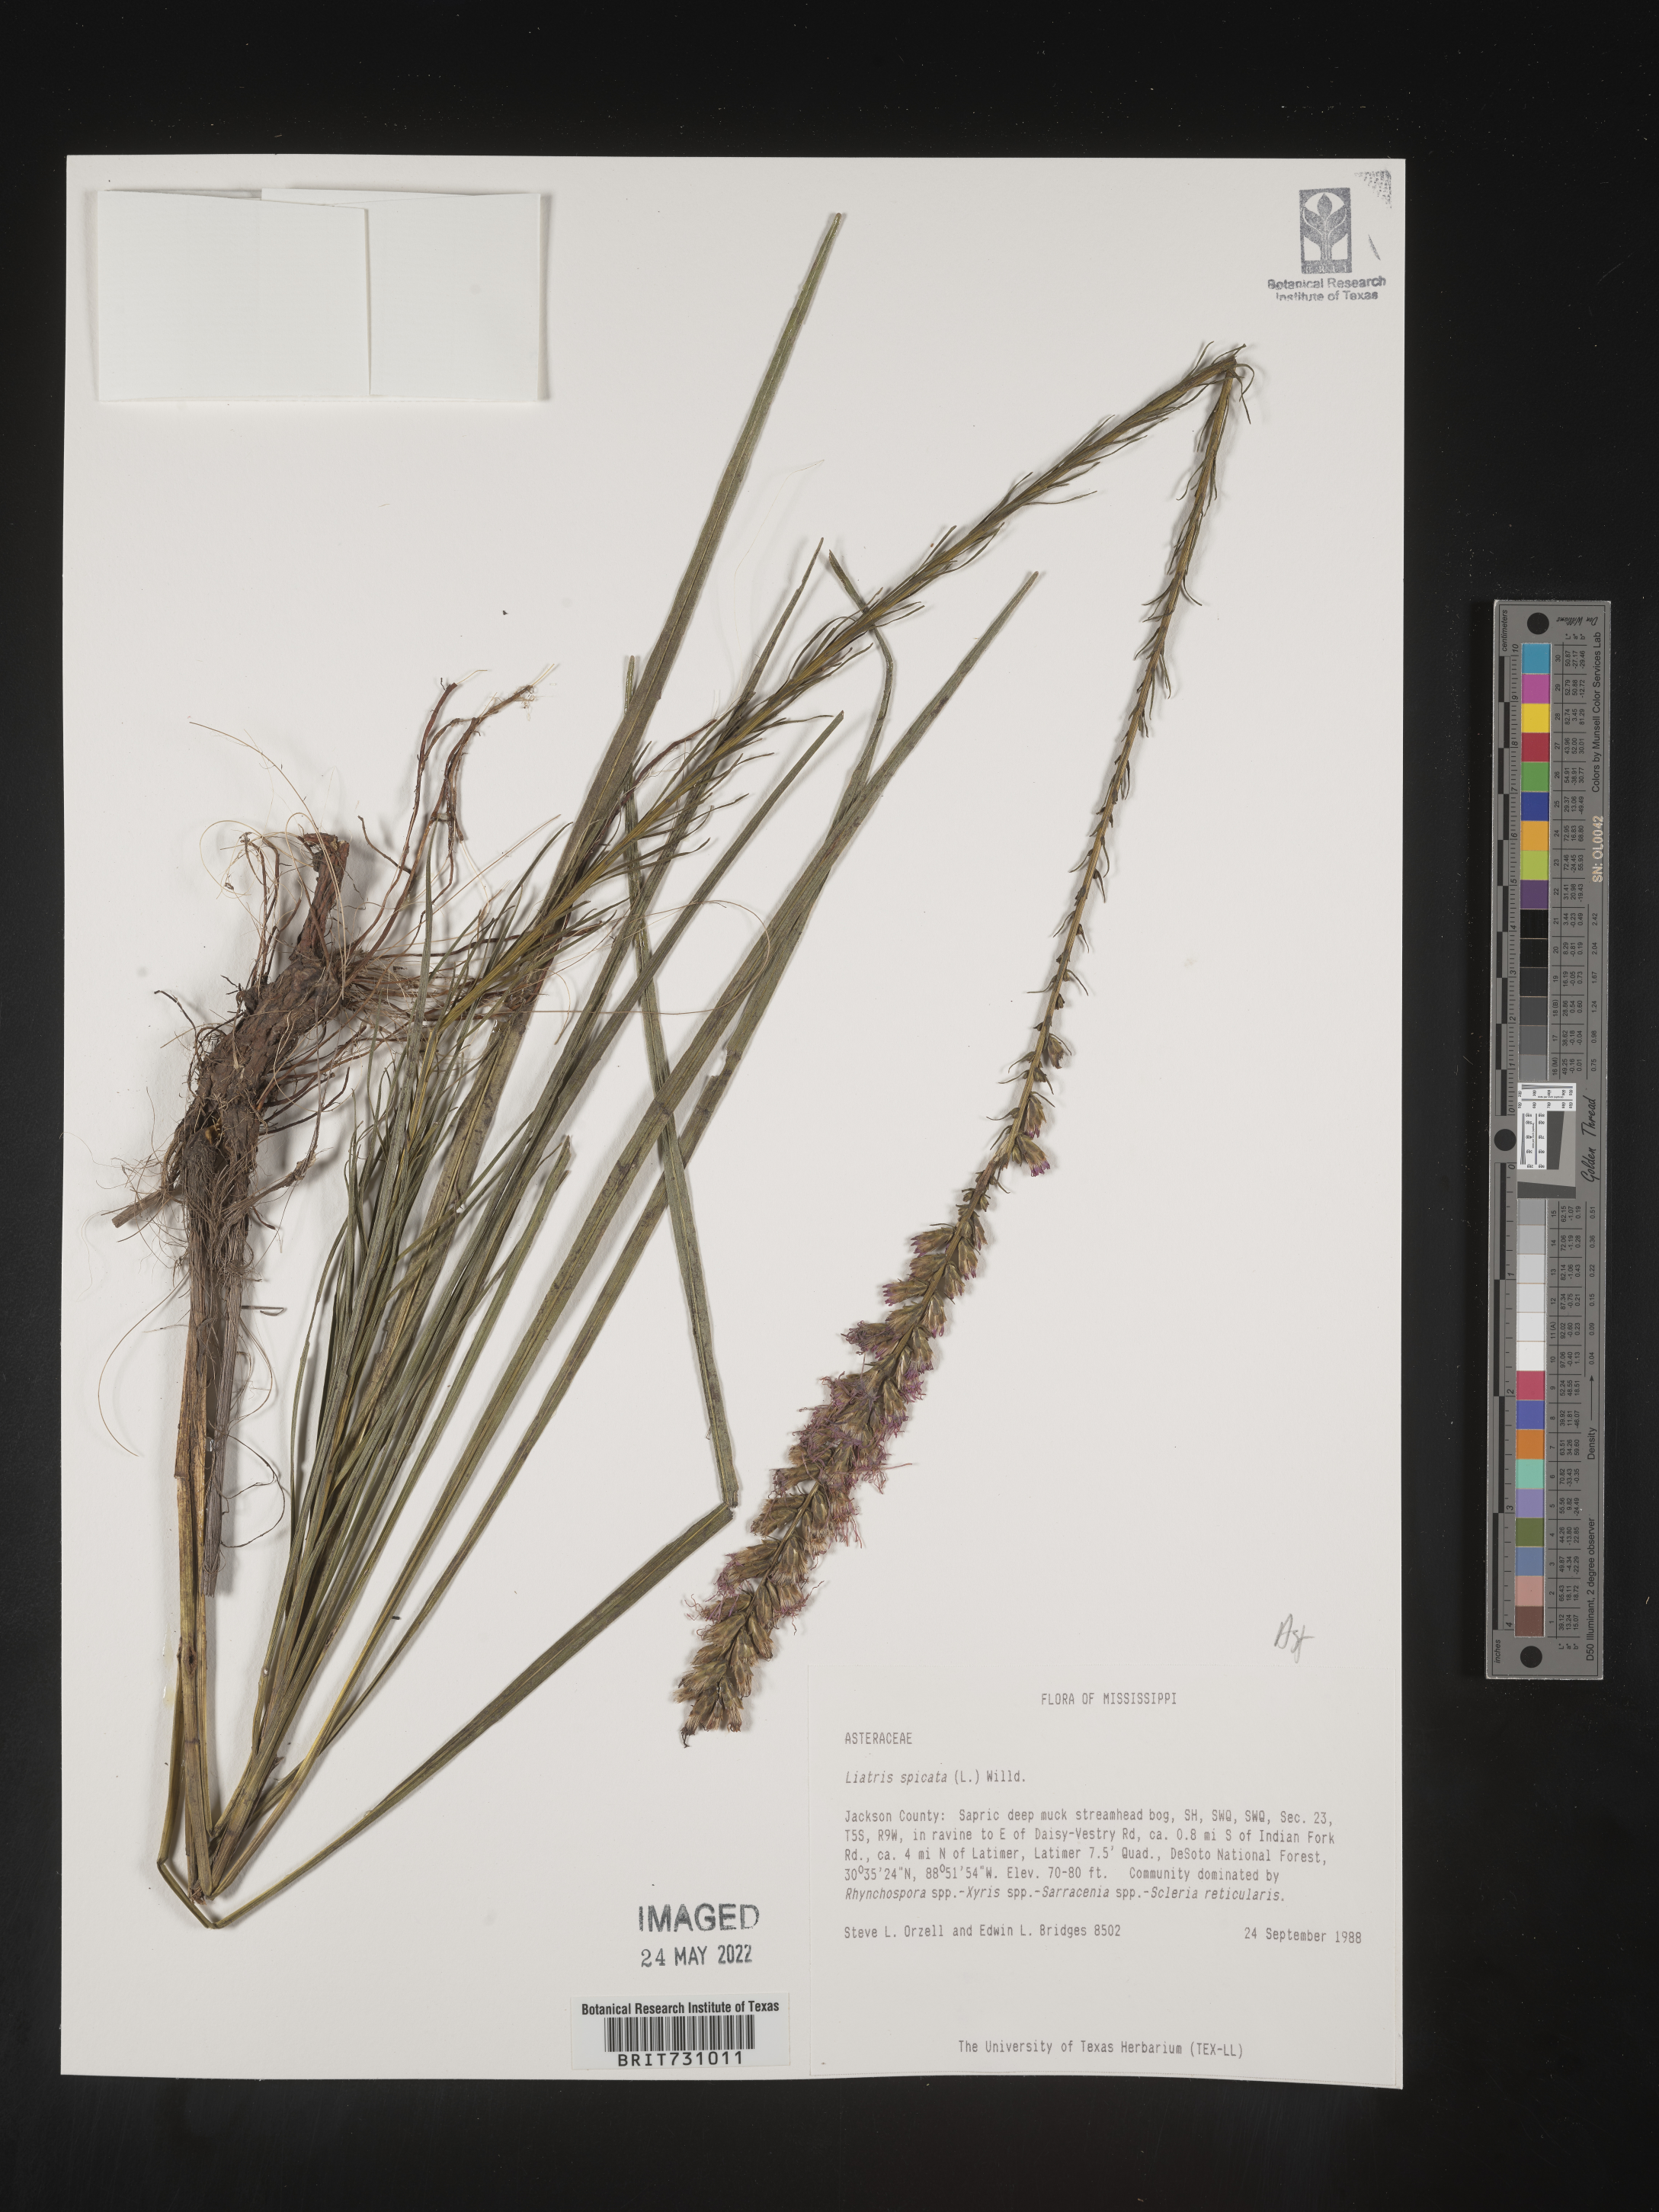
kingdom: Plantae
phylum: Tracheophyta
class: Magnoliopsida
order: Asterales
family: Asteraceae
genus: Liatris
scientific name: Liatris spicata
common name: Florist gayfeather
